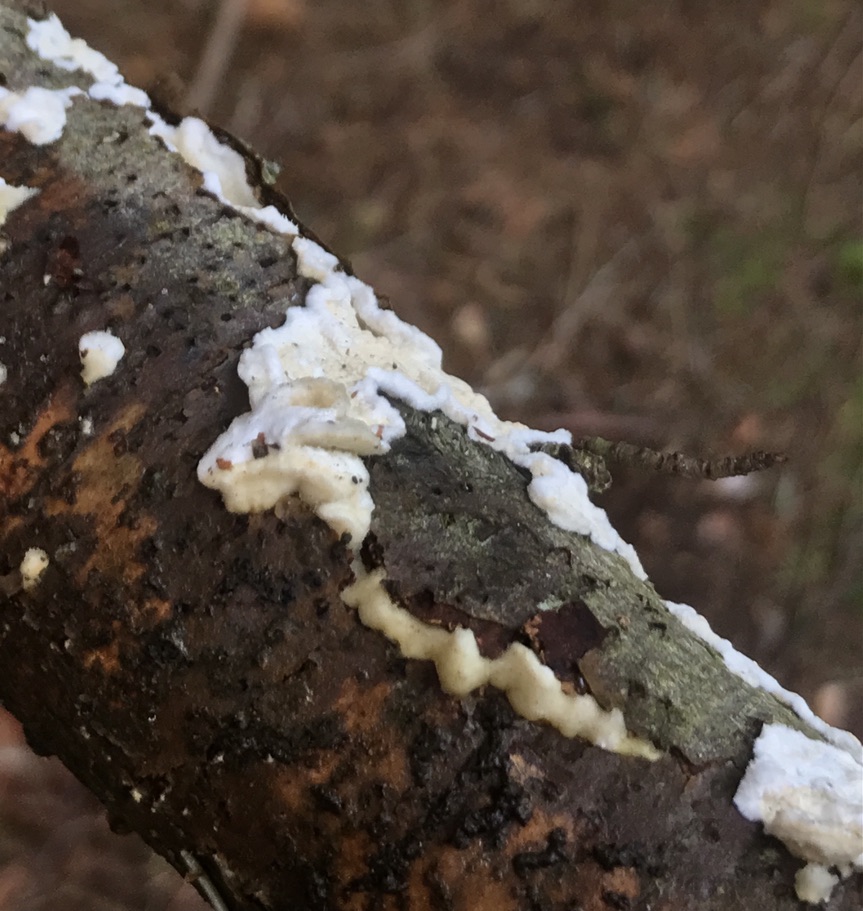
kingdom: Fungi
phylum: Basidiomycota
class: Agaricomycetes
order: Polyporales
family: Irpicaceae
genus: Byssomerulius
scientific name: Byssomerulius corium
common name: læder-åresvamp
